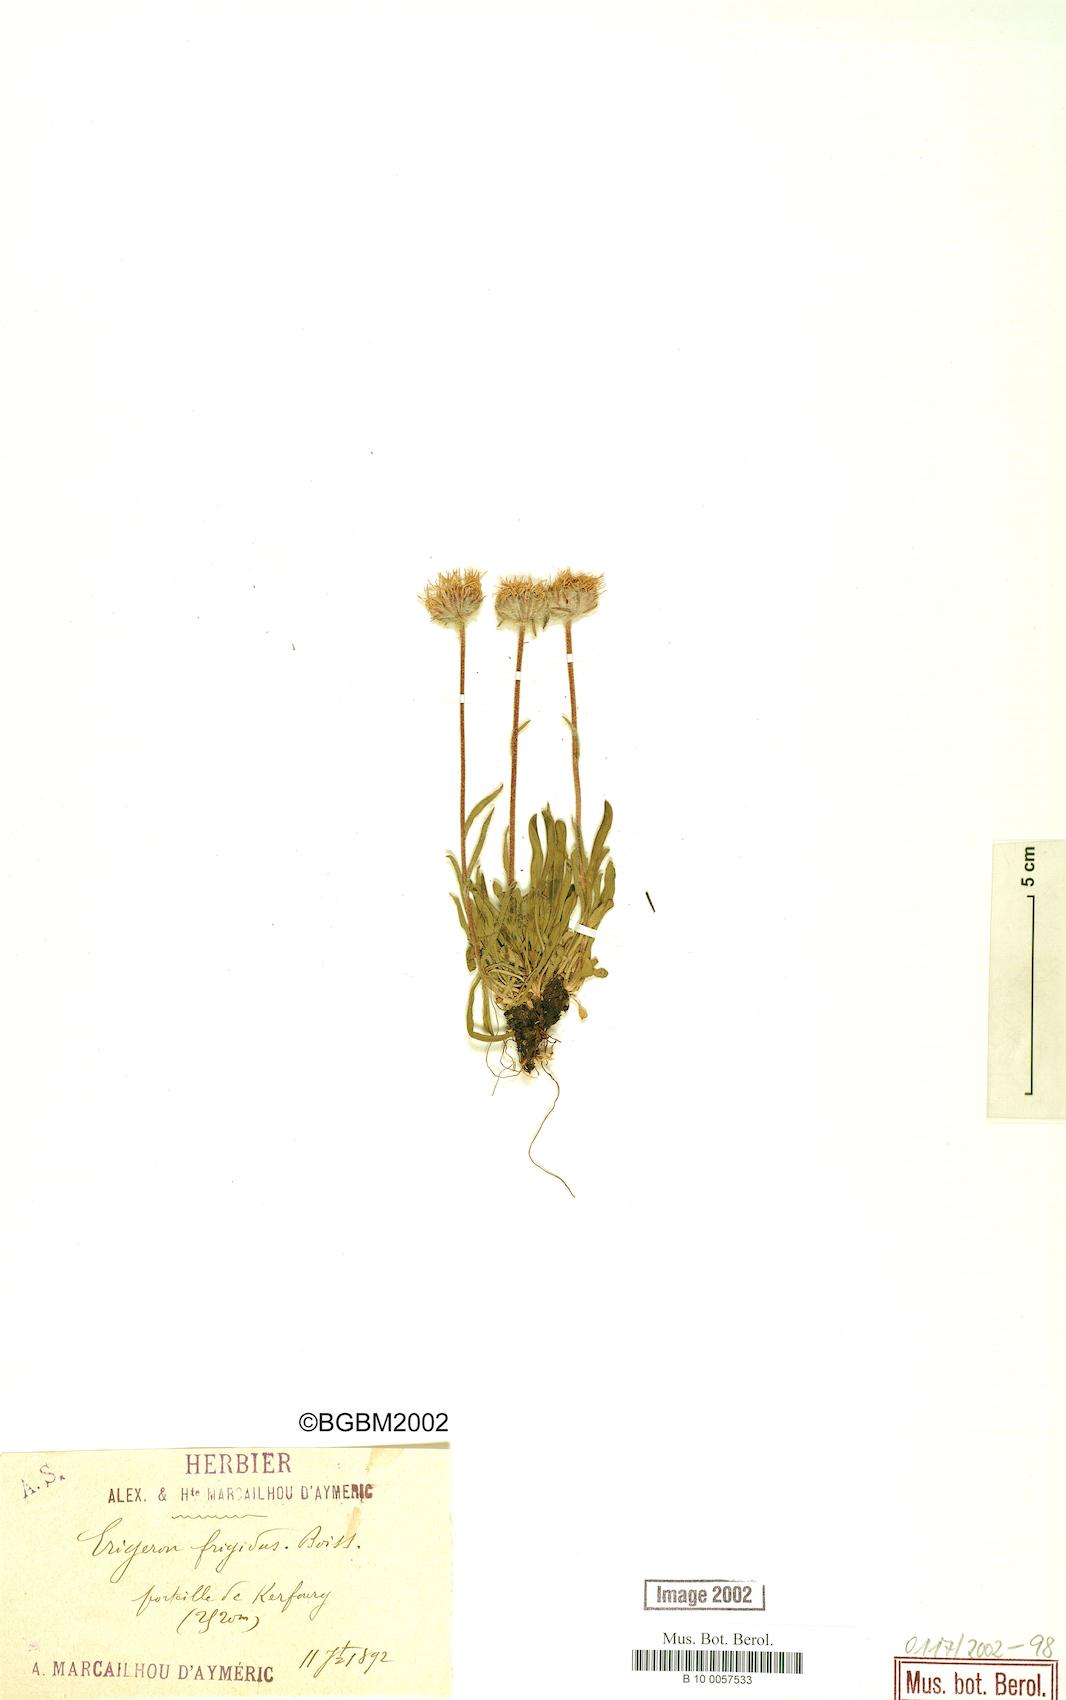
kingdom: Plantae
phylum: Tracheophyta
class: Magnoliopsida
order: Asterales
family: Asteraceae
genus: Erigeron
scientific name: Erigeron aragonensis
